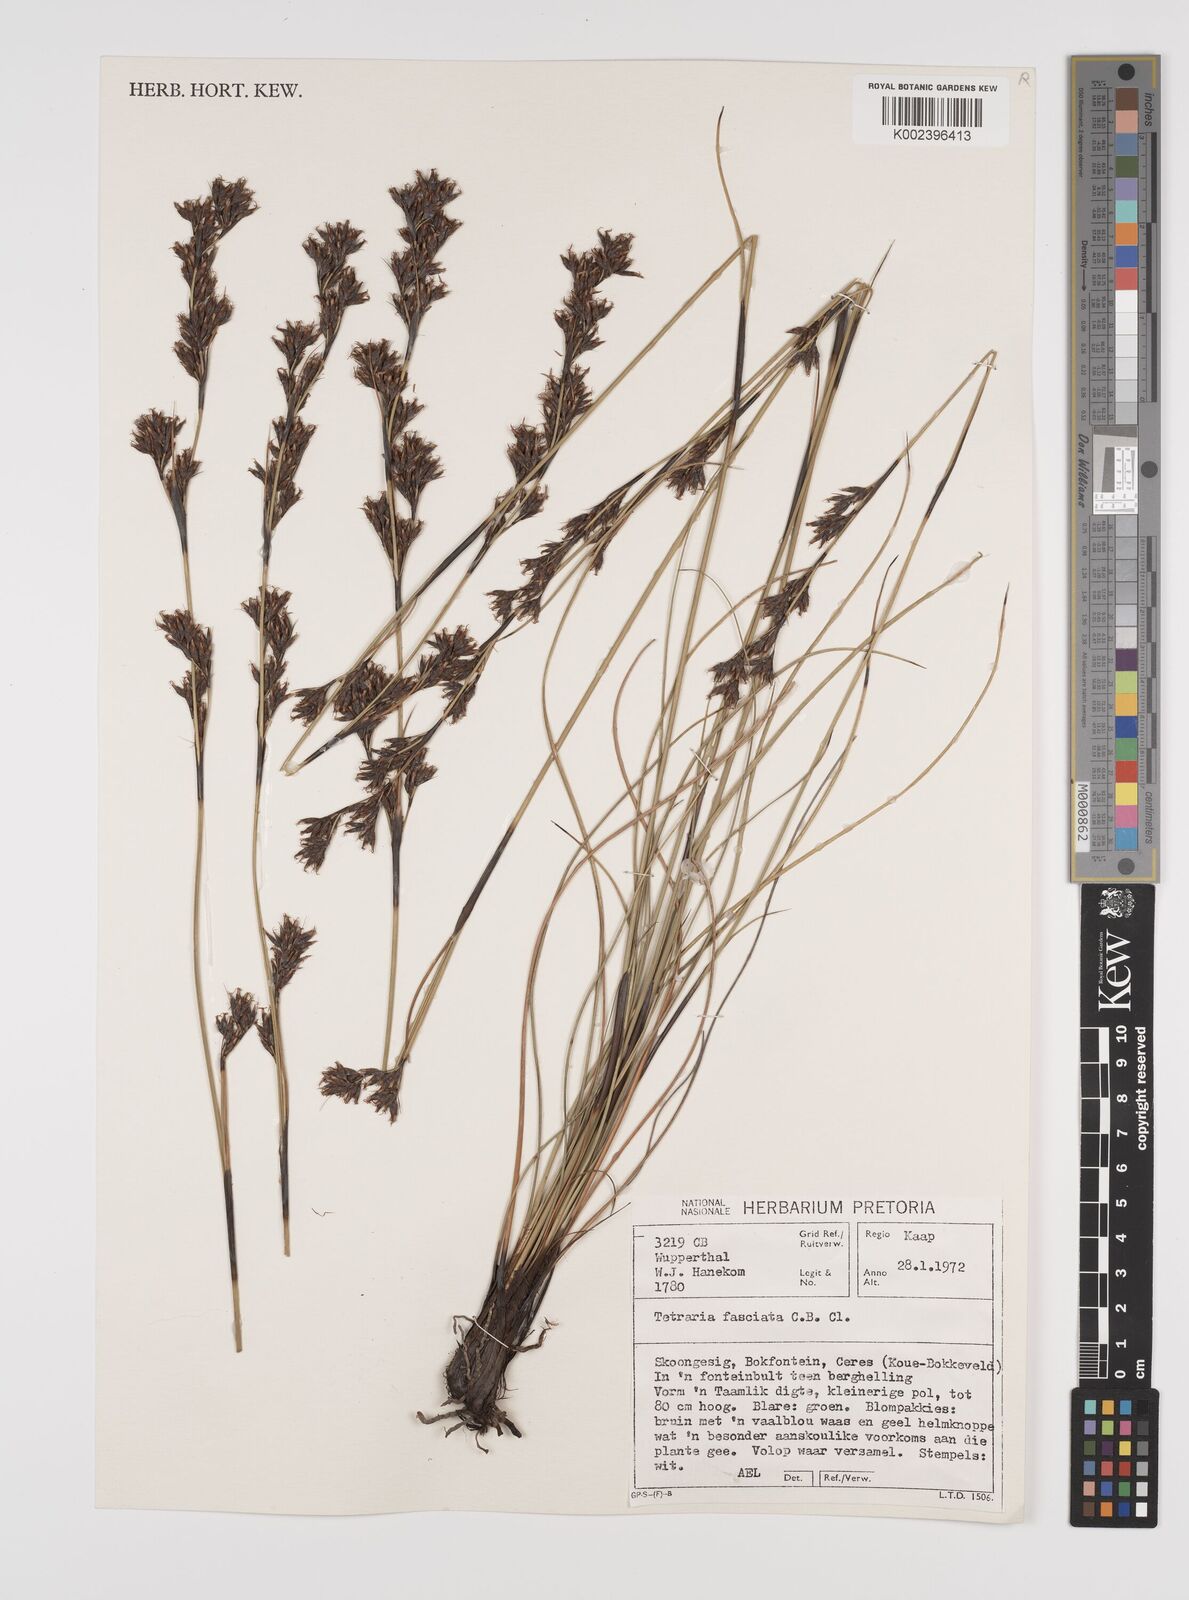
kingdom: Plantae
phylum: Tracheophyta
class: Liliopsida
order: Poales
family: Cyperaceae
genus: Tetraria
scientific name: Tetraria
